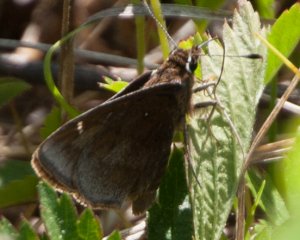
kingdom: Animalia
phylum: Arthropoda
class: Insecta
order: Lepidoptera
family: Hesperiidae
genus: Atrytonopsis
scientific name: Atrytonopsis hianna
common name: Dusted Skipper
